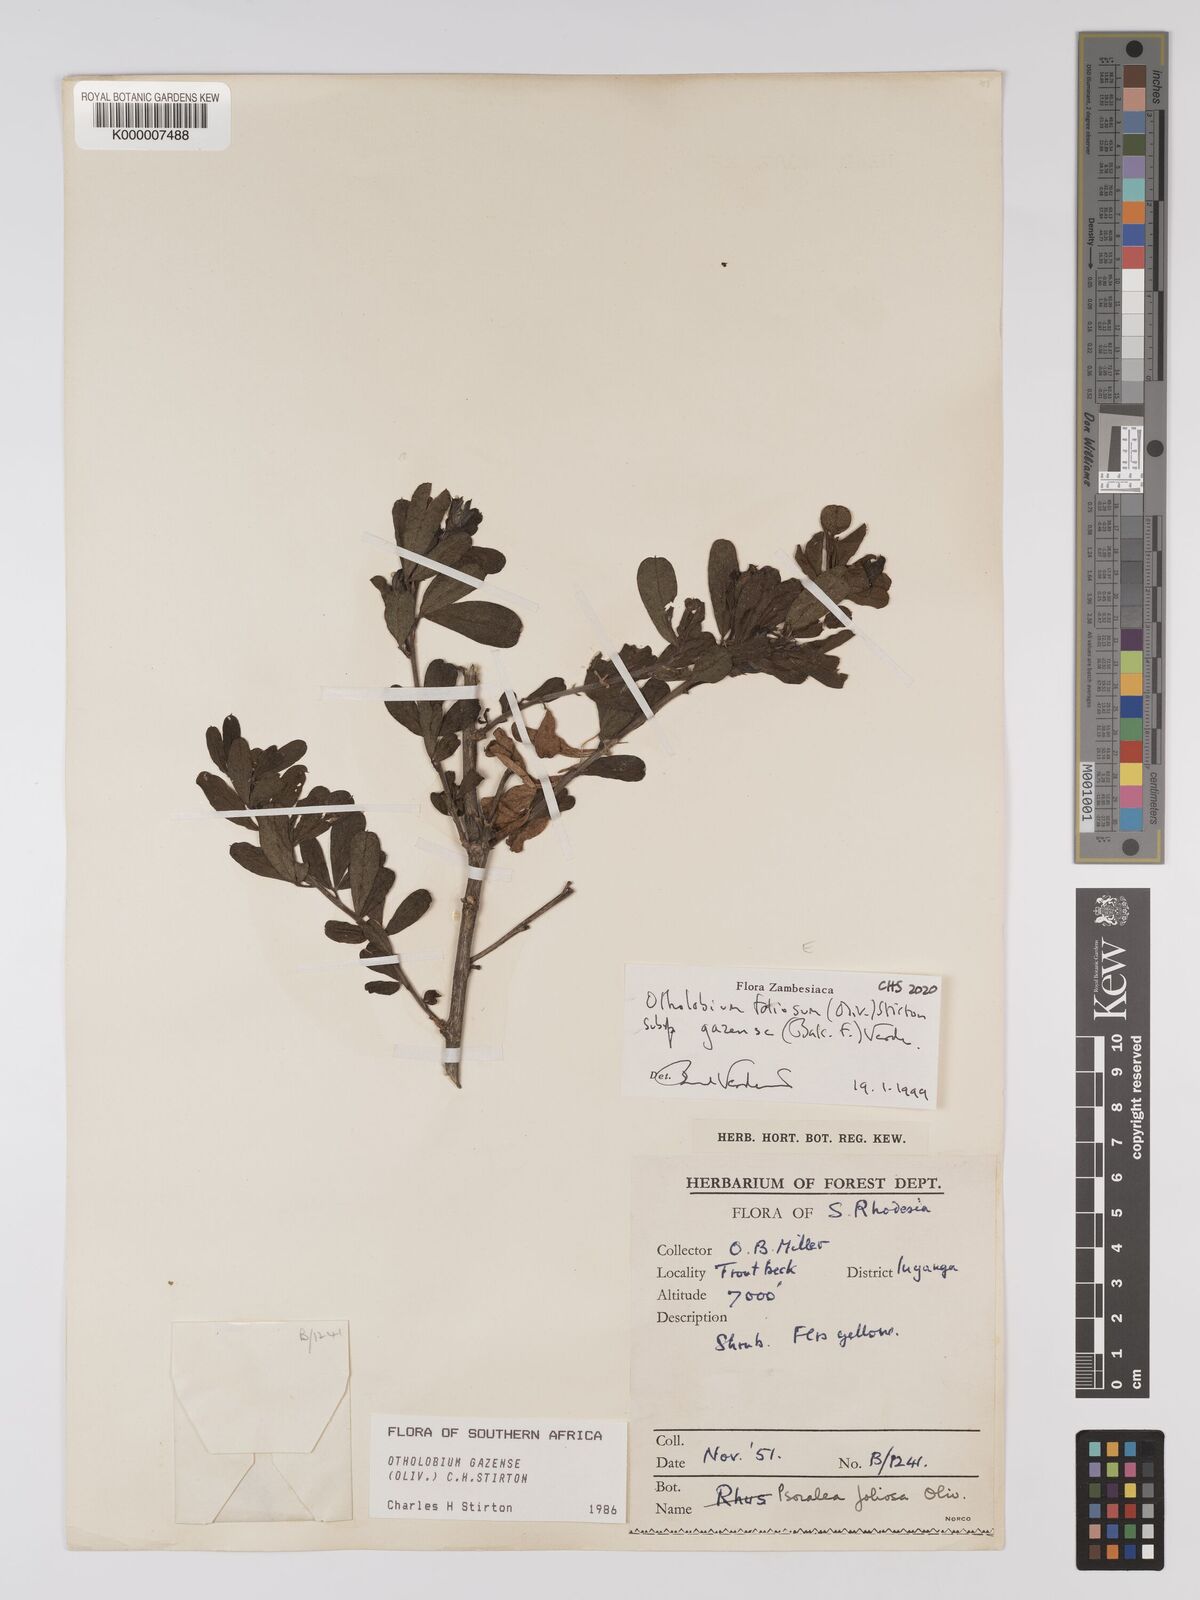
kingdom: Plantae
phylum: Tracheophyta
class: Magnoliopsida
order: Fabales
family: Fabaceae
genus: Psoralea
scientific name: Psoralea foliosa
